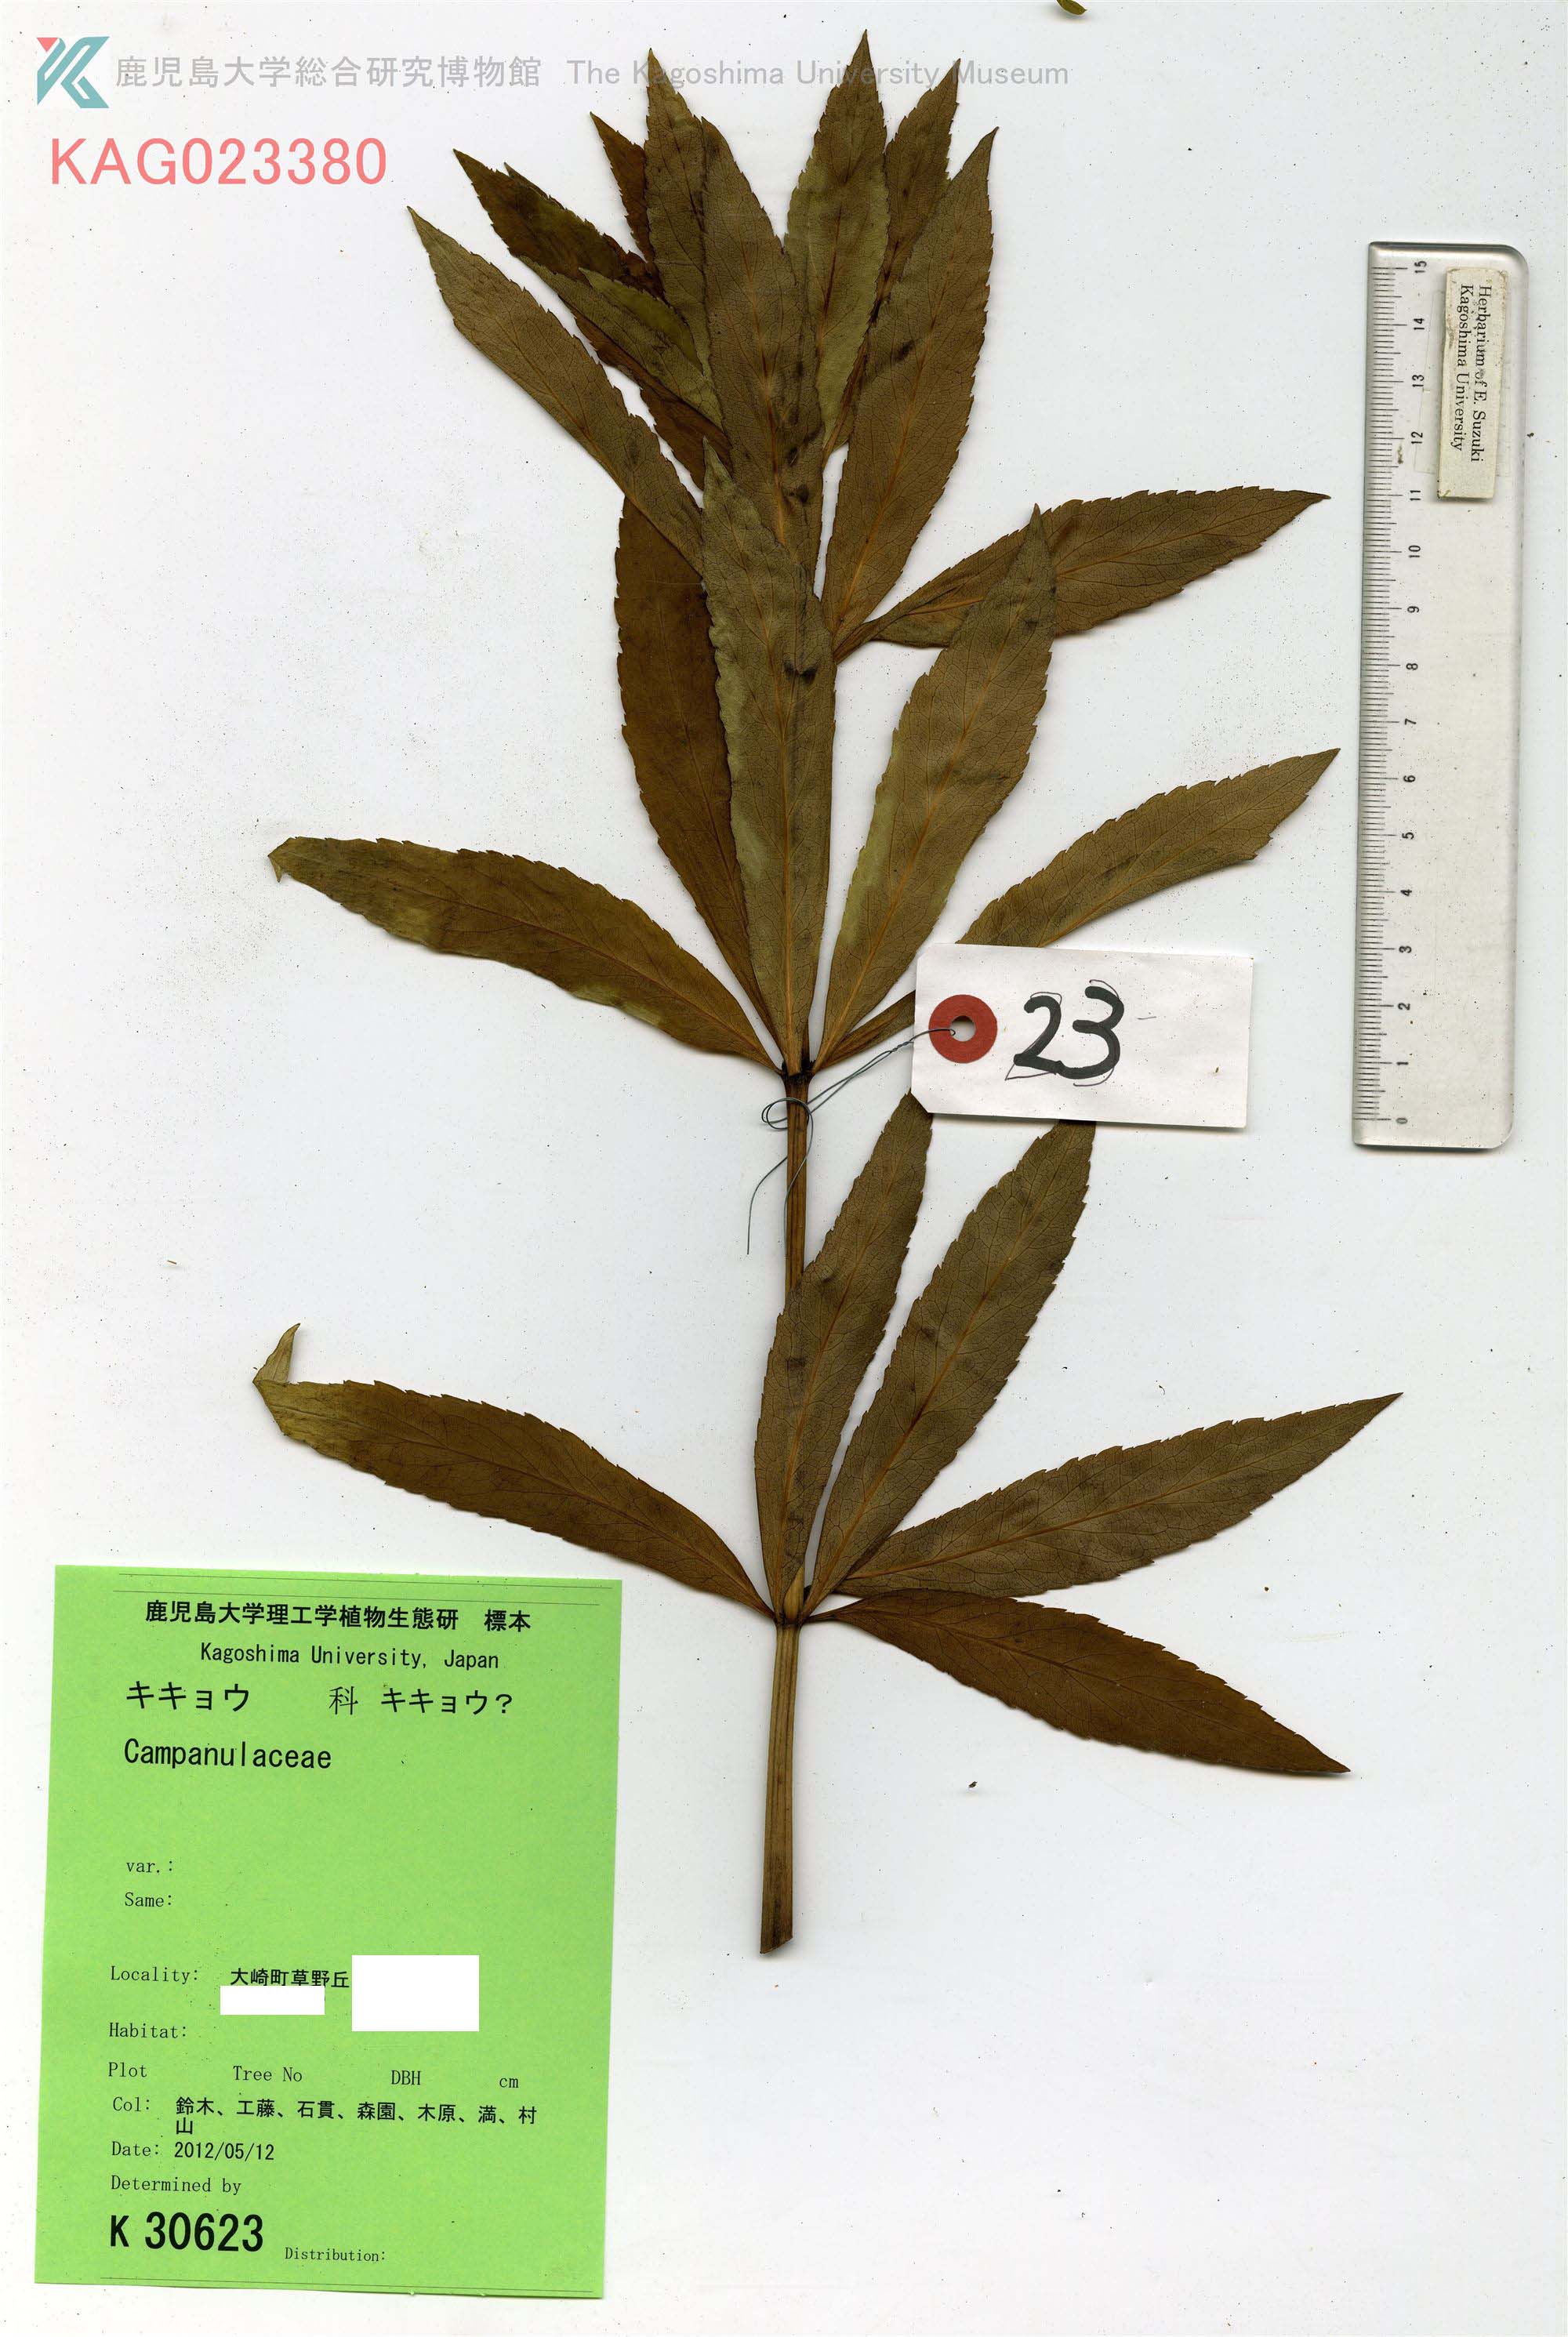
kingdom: Plantae
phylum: Tracheophyta
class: Magnoliopsida
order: Asterales
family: Campanulaceae
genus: Adenophora
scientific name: Adenophora triphylla
